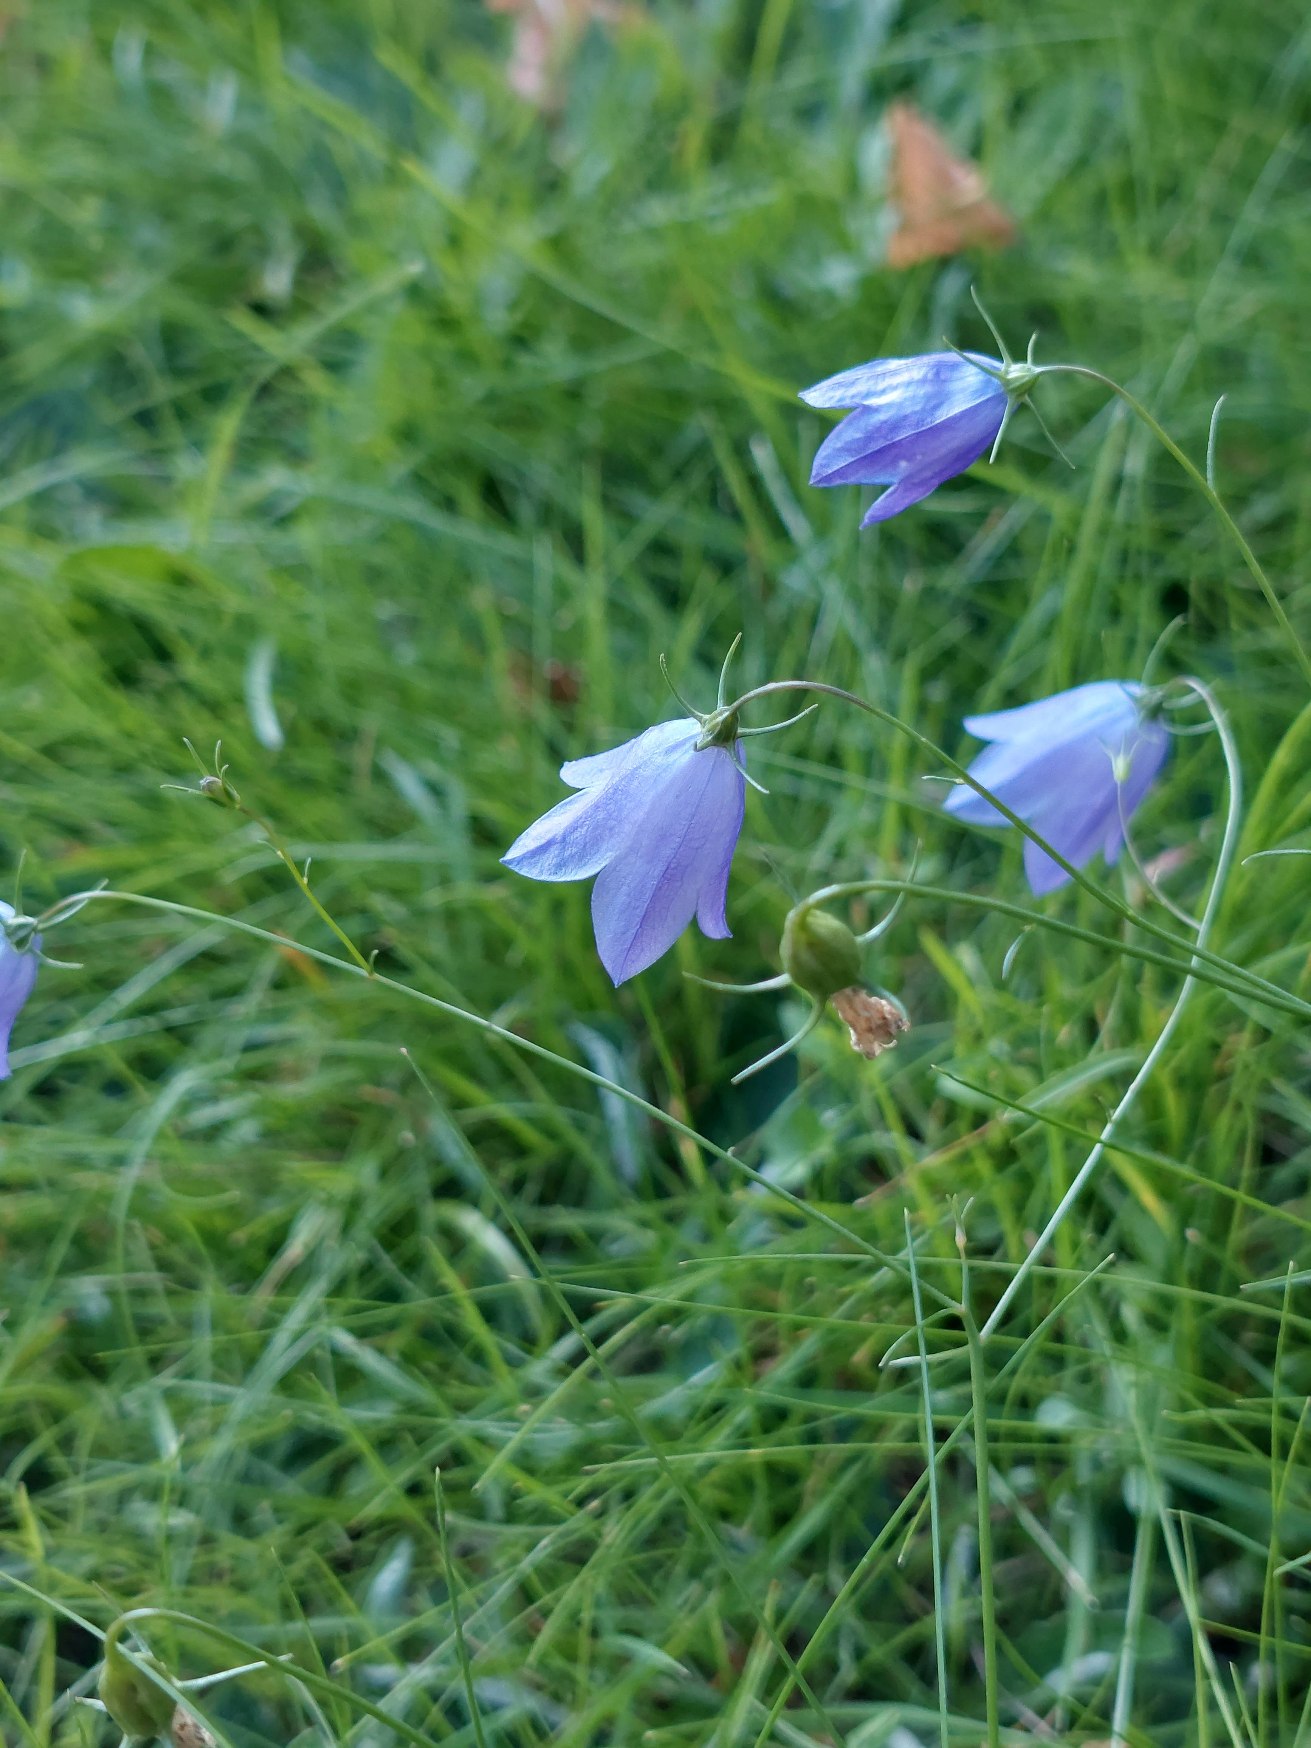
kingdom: Plantae
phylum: Tracheophyta
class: Magnoliopsida
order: Asterales
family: Campanulaceae
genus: Campanula
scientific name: Campanula rotundifolia
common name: Liden klokke
